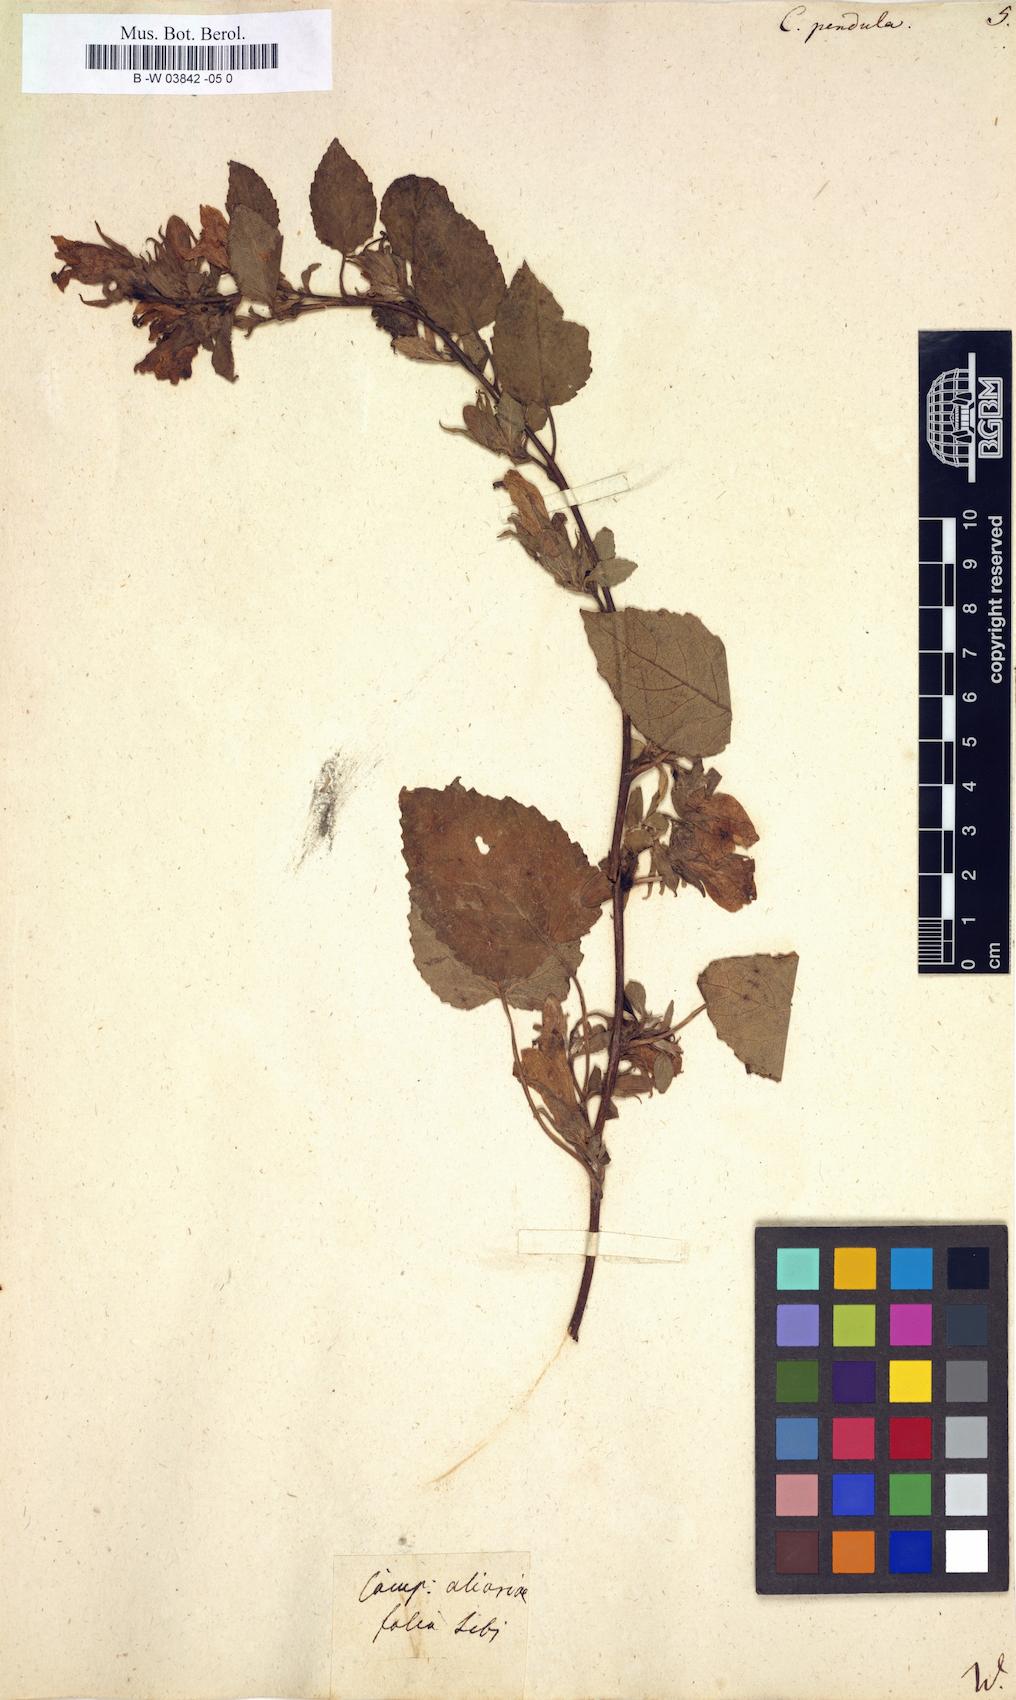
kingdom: Plantae
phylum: Tracheophyta
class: Magnoliopsida
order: Asterales
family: Campanulaceae
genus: Campanula
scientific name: Campanula pendula
